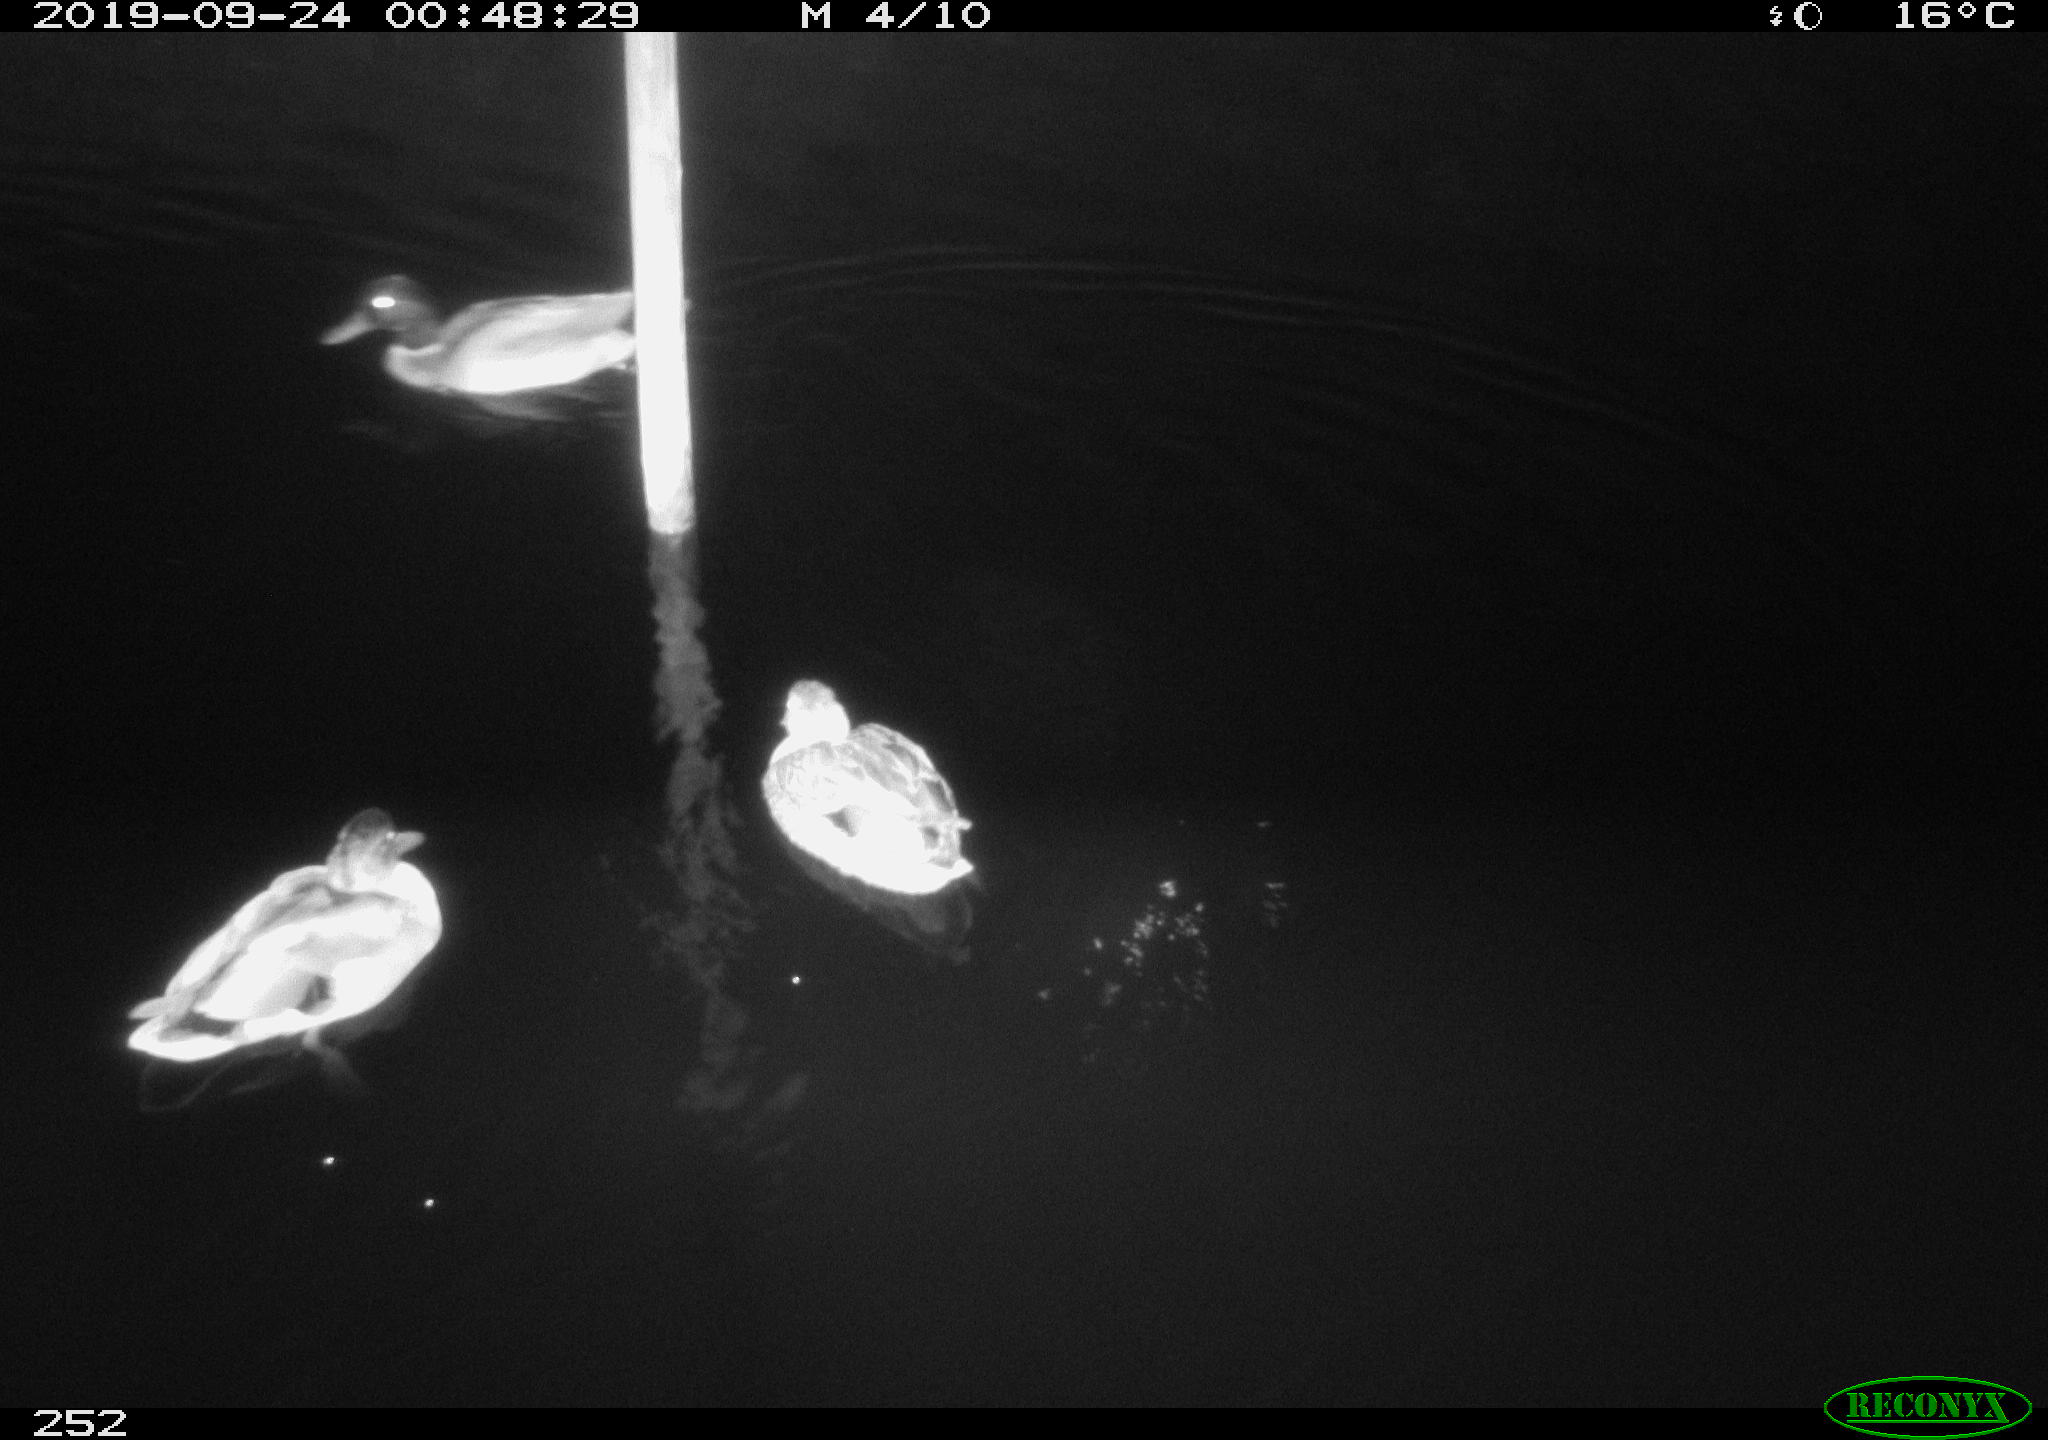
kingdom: Animalia
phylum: Chordata
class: Aves
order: Anseriformes
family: Anatidae
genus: Anas
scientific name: Anas platyrhynchos
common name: Mallard
